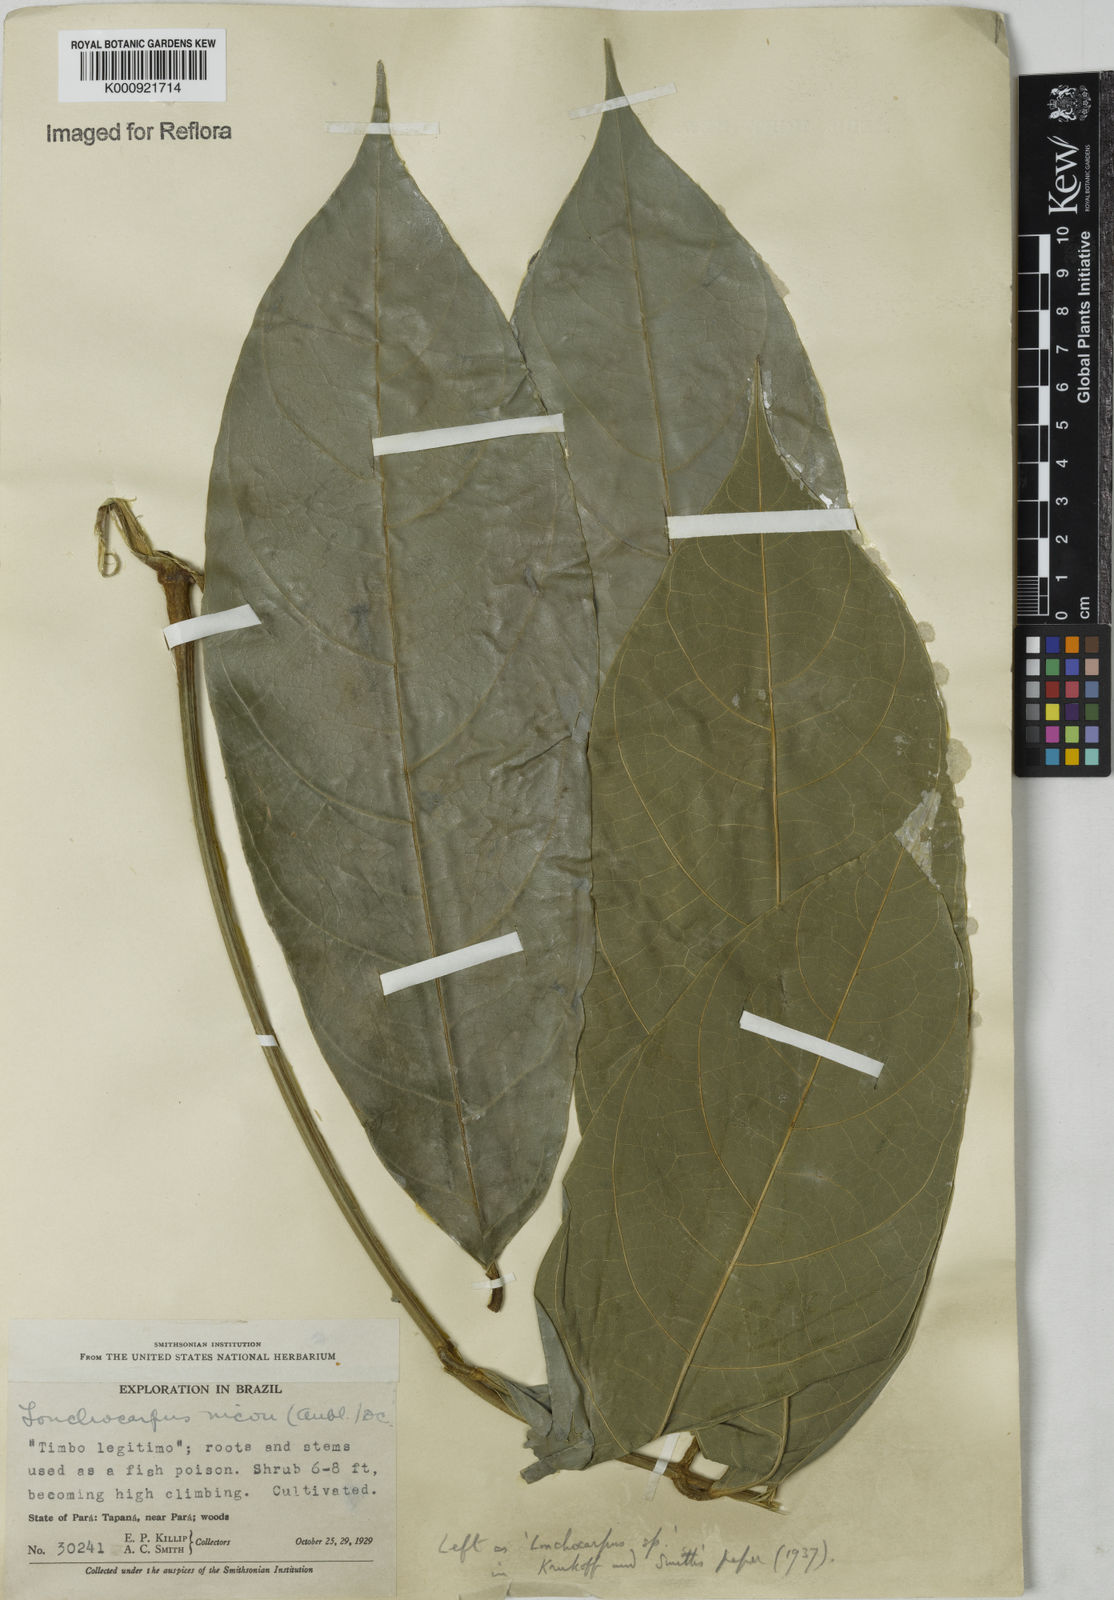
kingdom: Plantae
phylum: Tracheophyta
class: Magnoliopsida
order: Fabales
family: Fabaceae
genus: Lonchocarpus
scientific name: Lonchocarpus
